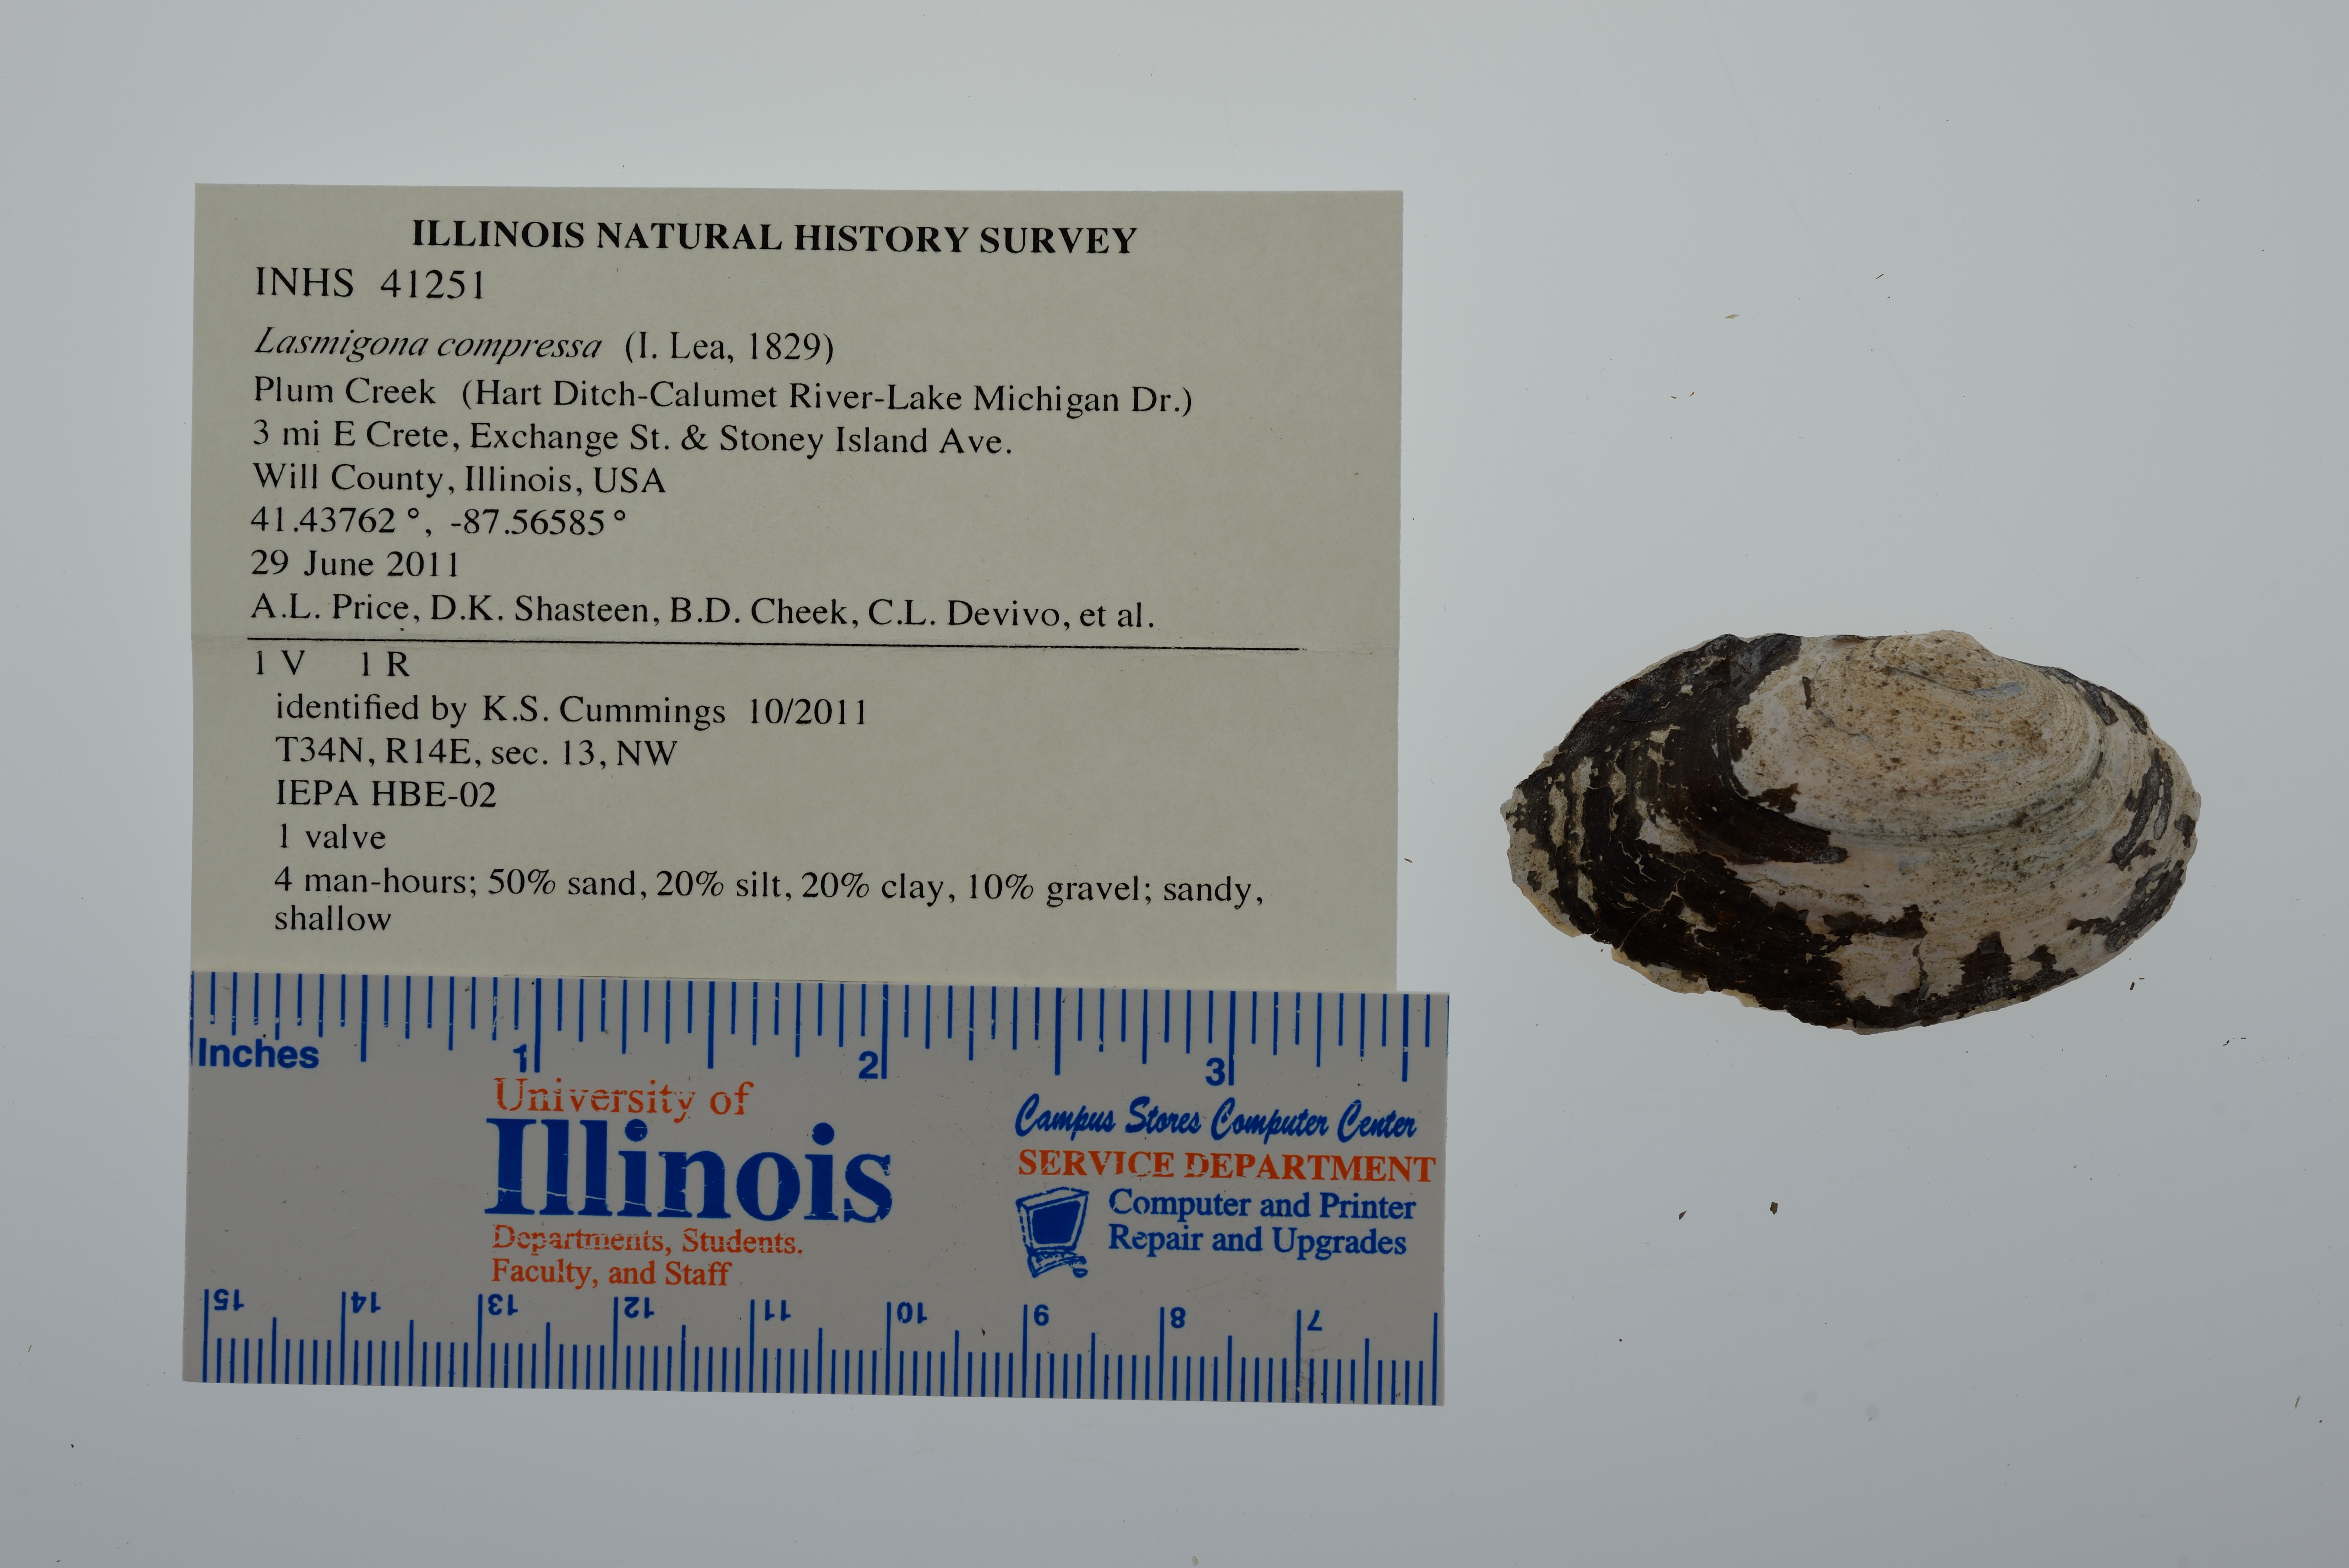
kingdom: Animalia
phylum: Mollusca
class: Bivalvia
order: Unionida
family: Unionidae
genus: Lasmigona
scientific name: Lasmigona compressa
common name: Creek heelsplitter
